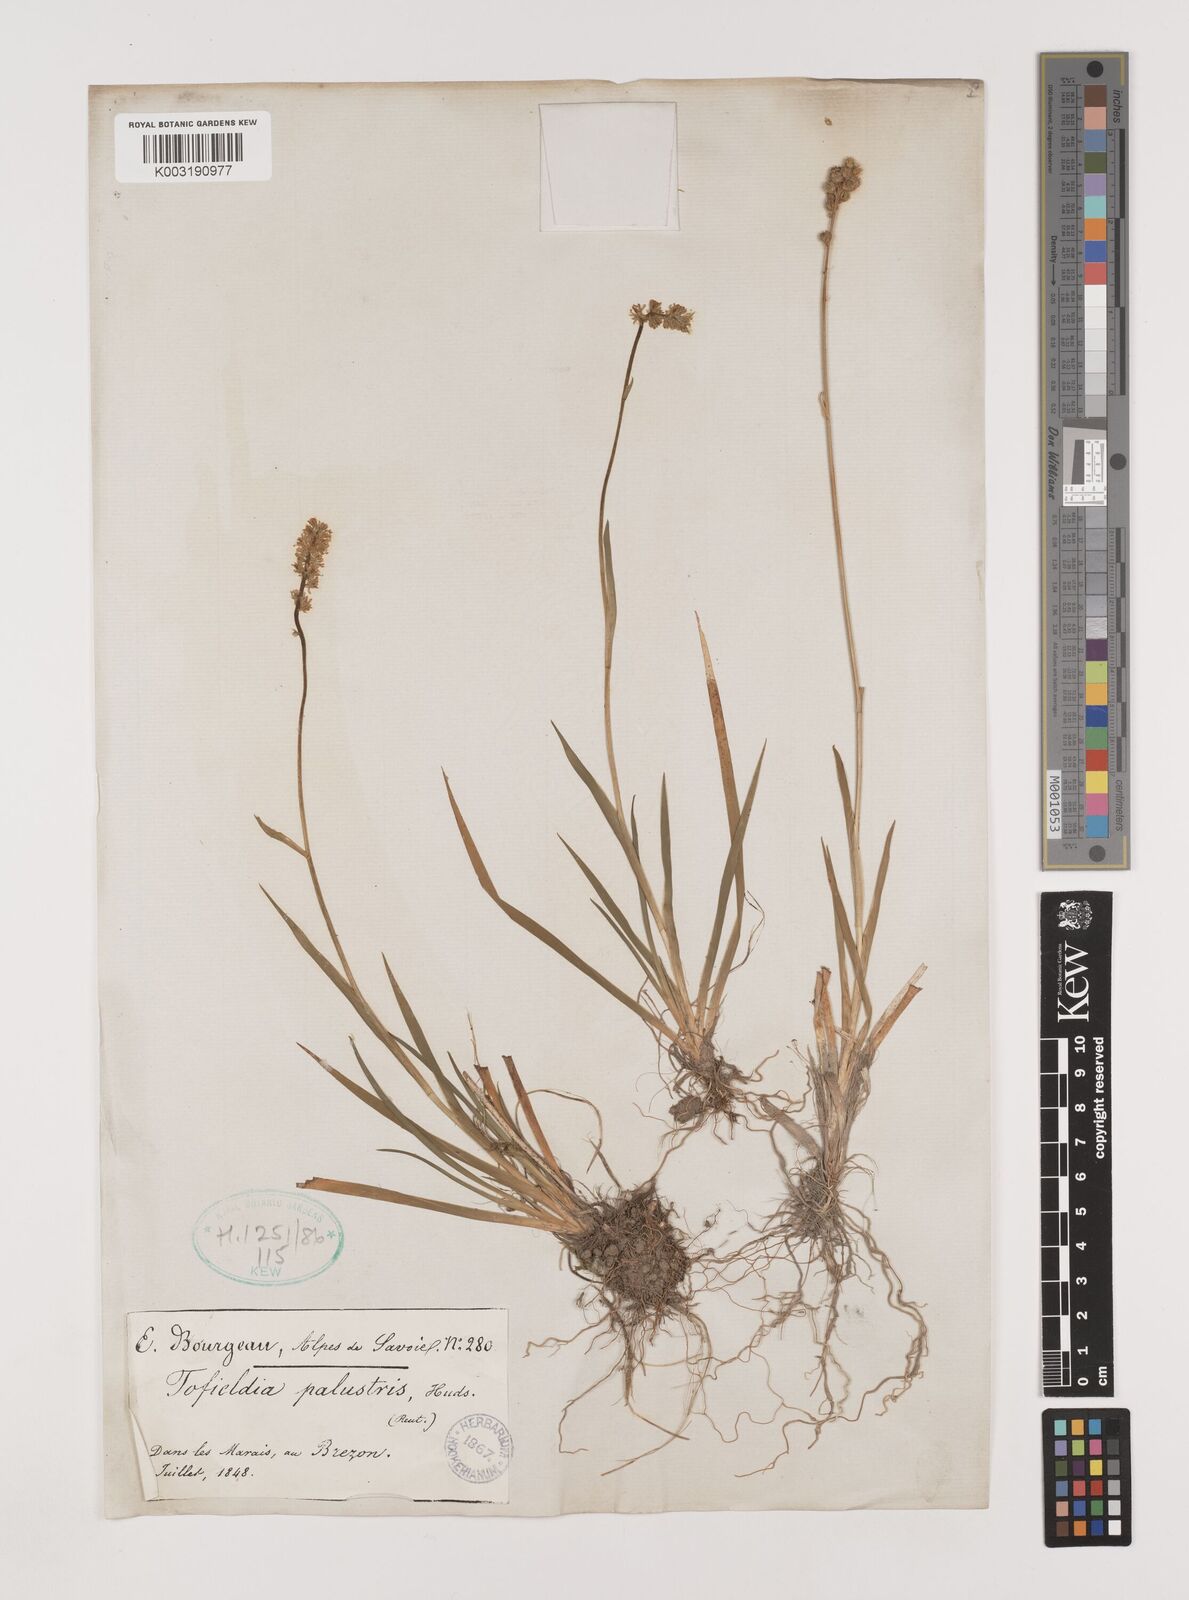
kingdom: Plantae
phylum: Tracheophyta
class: Liliopsida
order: Alismatales
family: Tofieldiaceae
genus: Tofieldia
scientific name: Tofieldia calyculata
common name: German-asphodel
